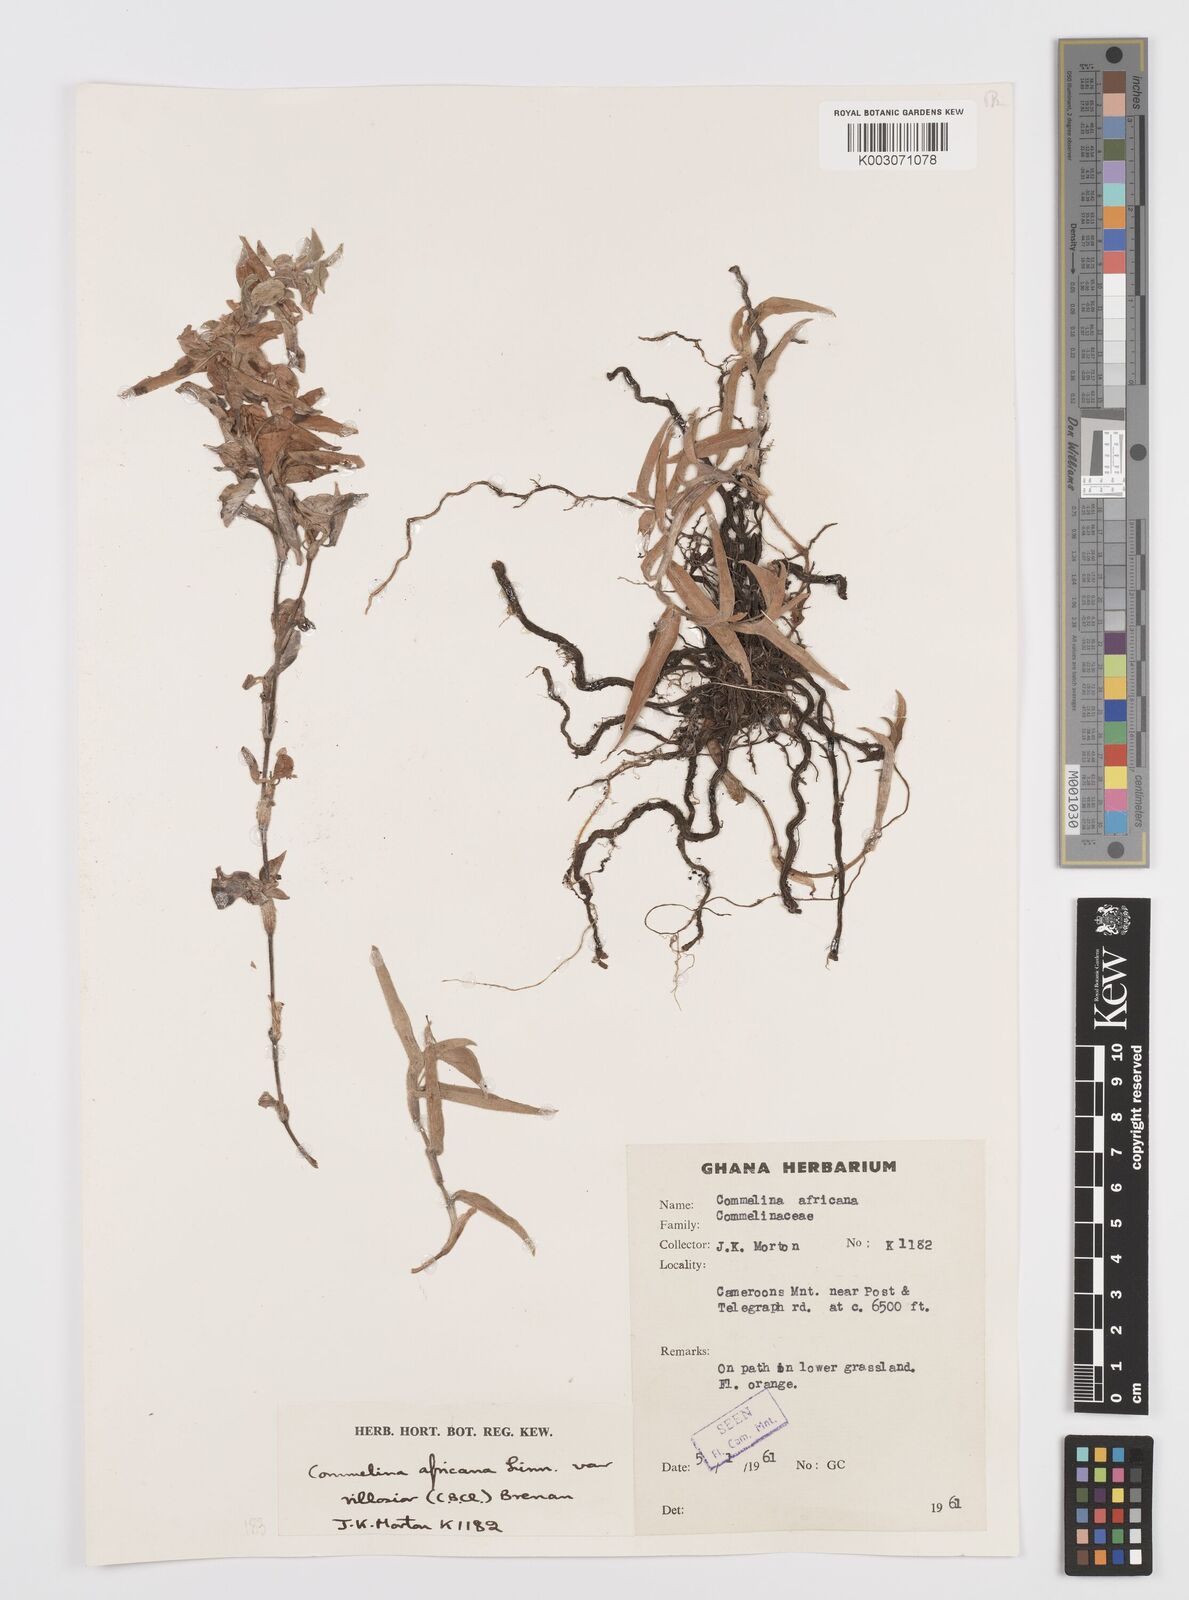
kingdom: Plantae
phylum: Tracheophyta
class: Liliopsida
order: Commelinales
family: Commelinaceae
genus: Commelina
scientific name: Commelina africana
